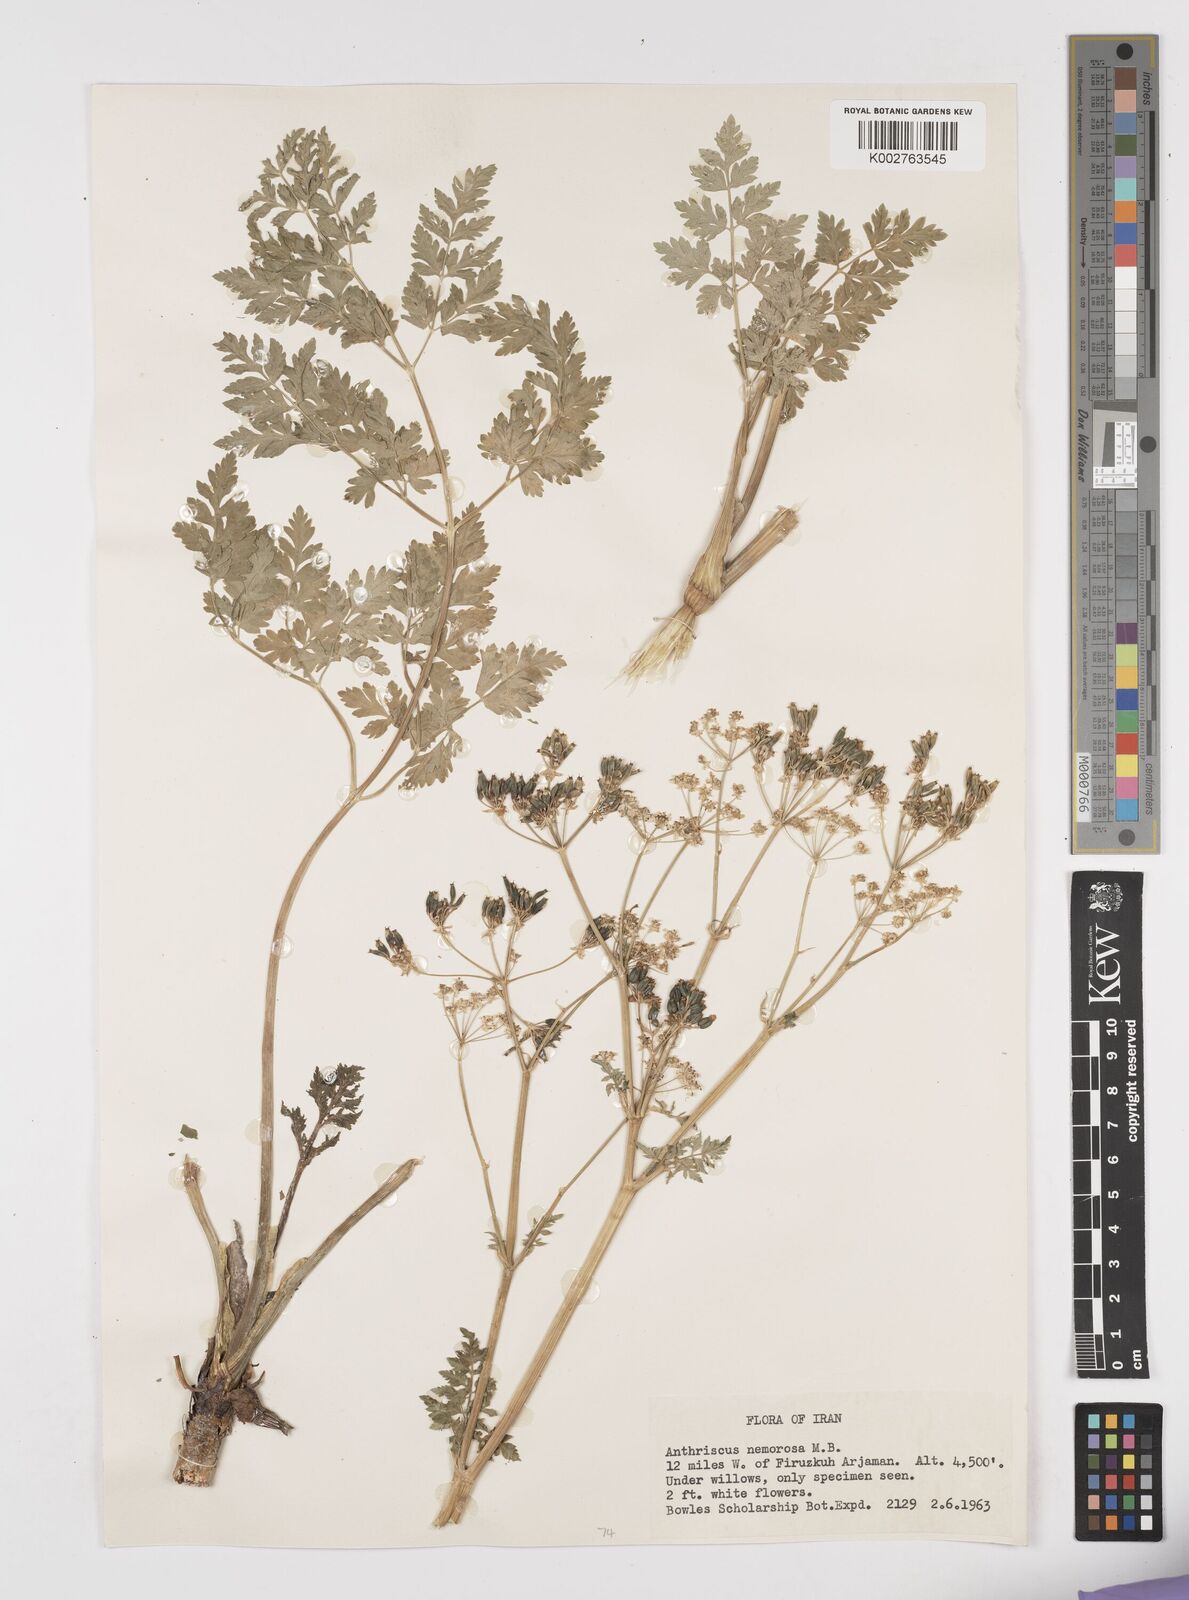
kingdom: Plantae
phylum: Tracheophyta
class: Magnoliopsida
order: Apiales
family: Apiaceae
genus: Anthriscus
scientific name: Anthriscus sylvestris
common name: Cow parsley
